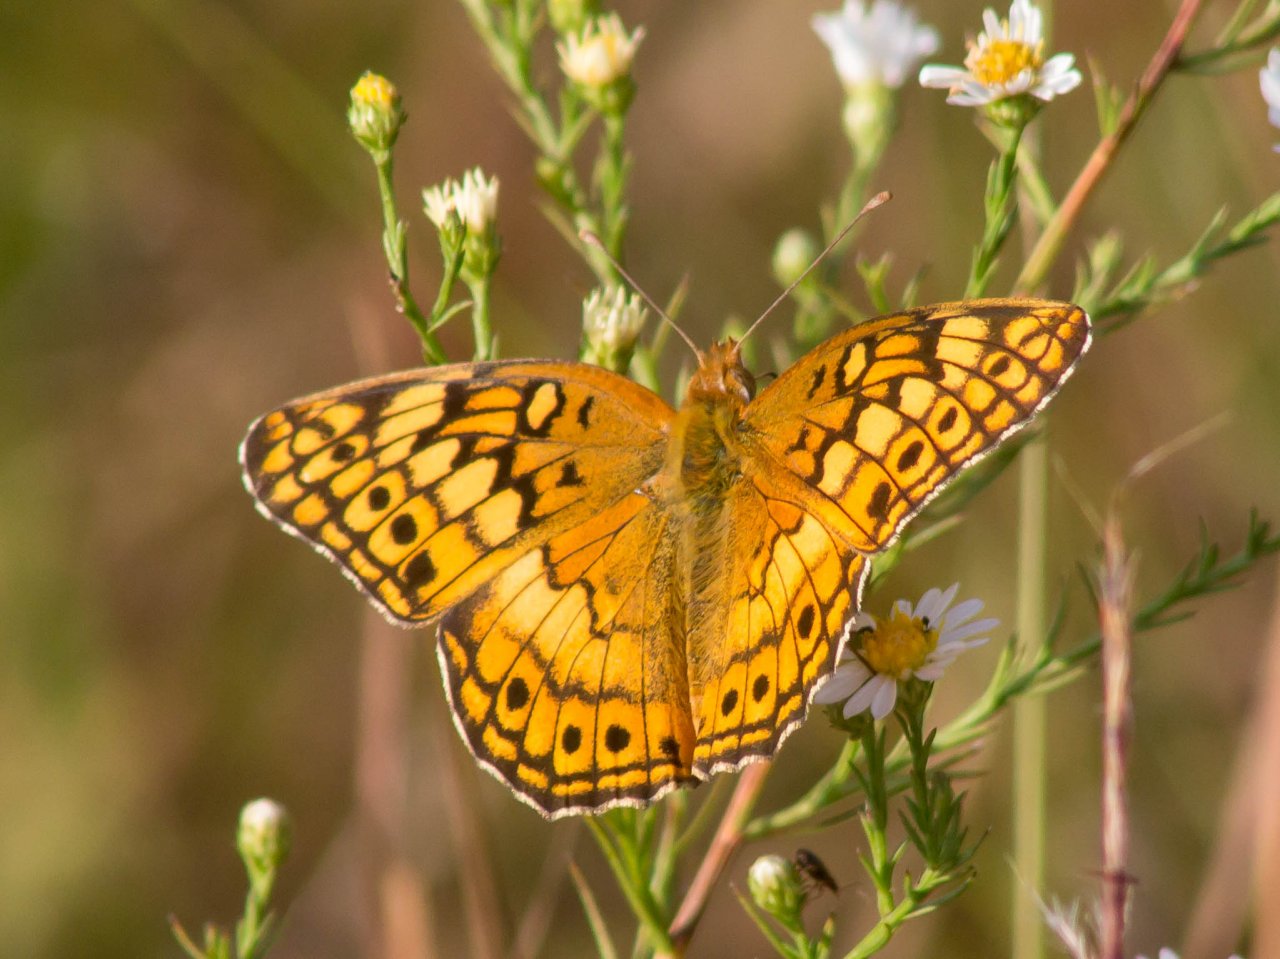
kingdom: Animalia
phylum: Arthropoda
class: Insecta
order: Lepidoptera
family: Nymphalidae
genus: Euptoieta
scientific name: Euptoieta claudia
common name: Variegated Fritillary
